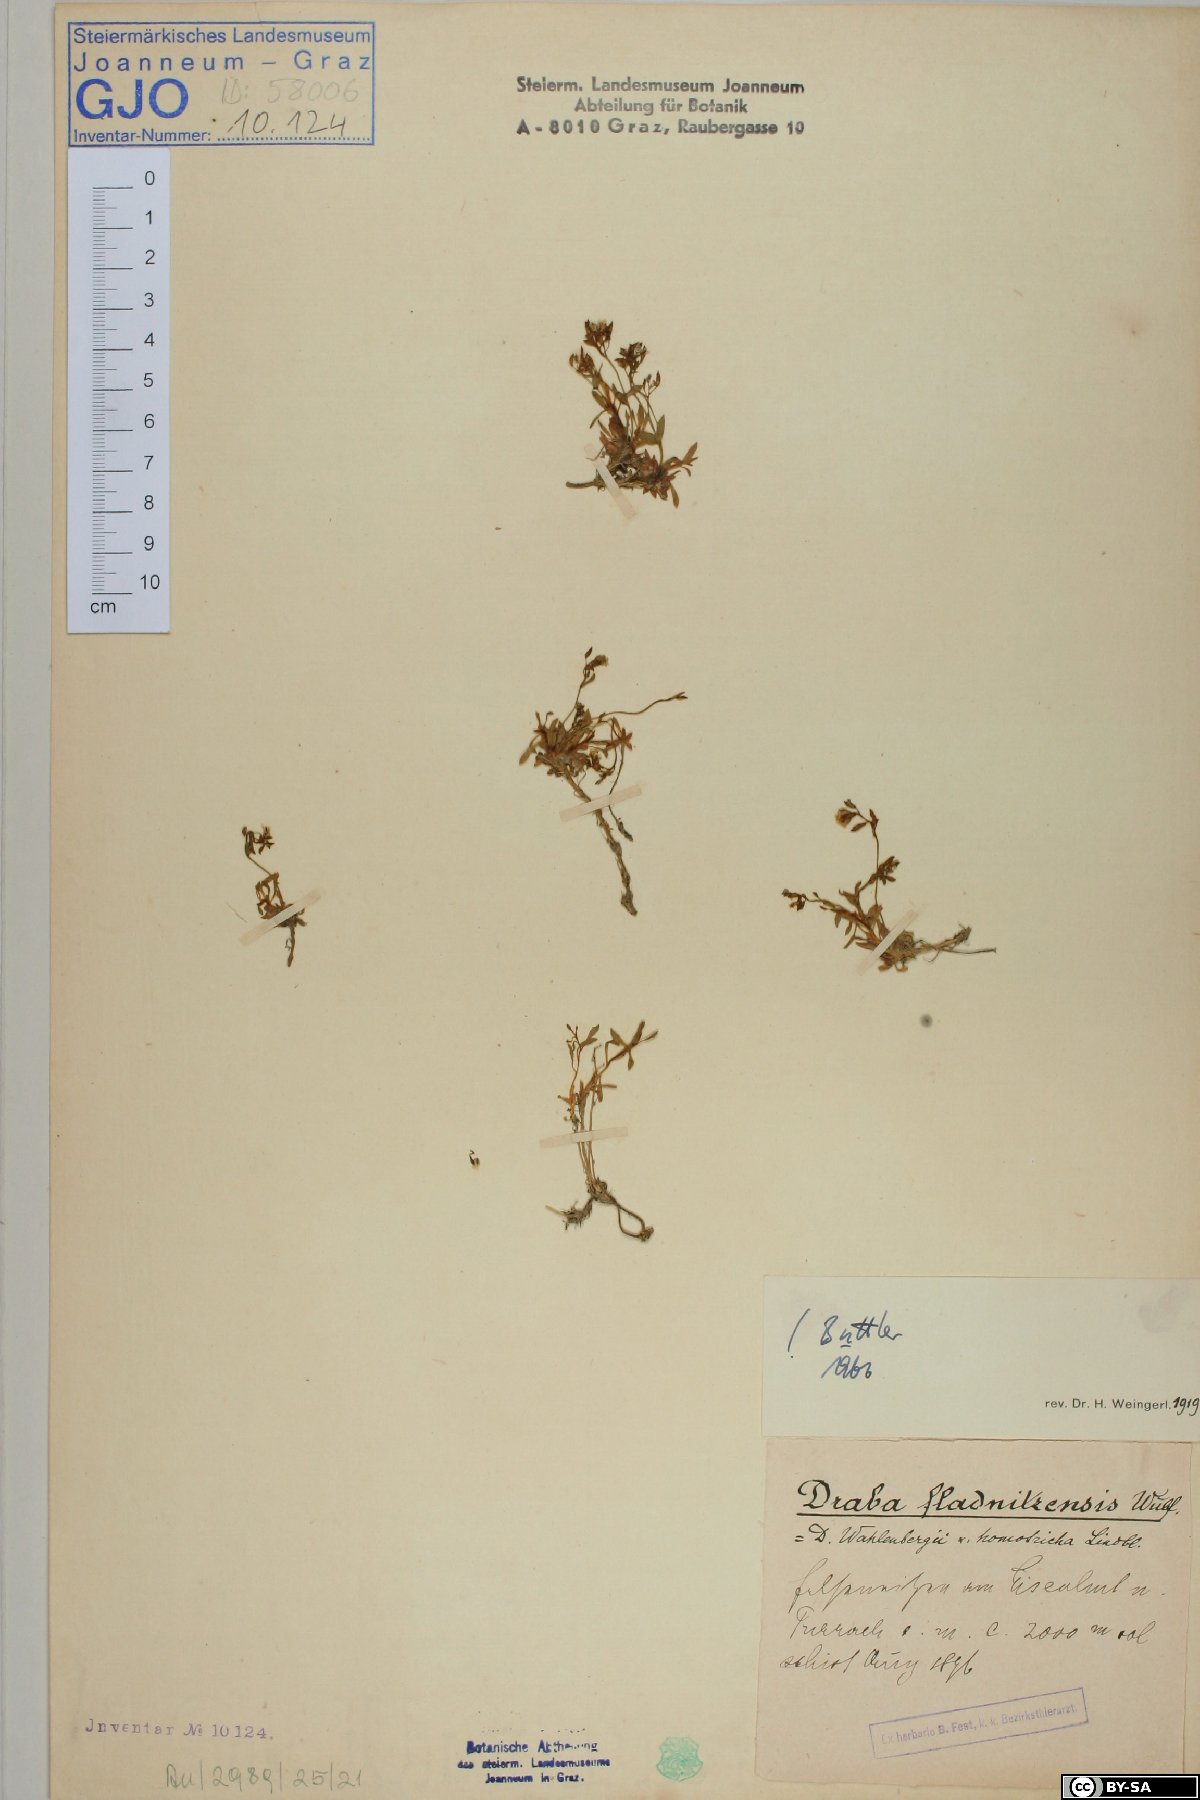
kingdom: Plantae
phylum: Tracheophyta
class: Magnoliopsida
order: Brassicales
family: Brassicaceae
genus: Draba
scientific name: Draba fladnizensis
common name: Austrian draba
